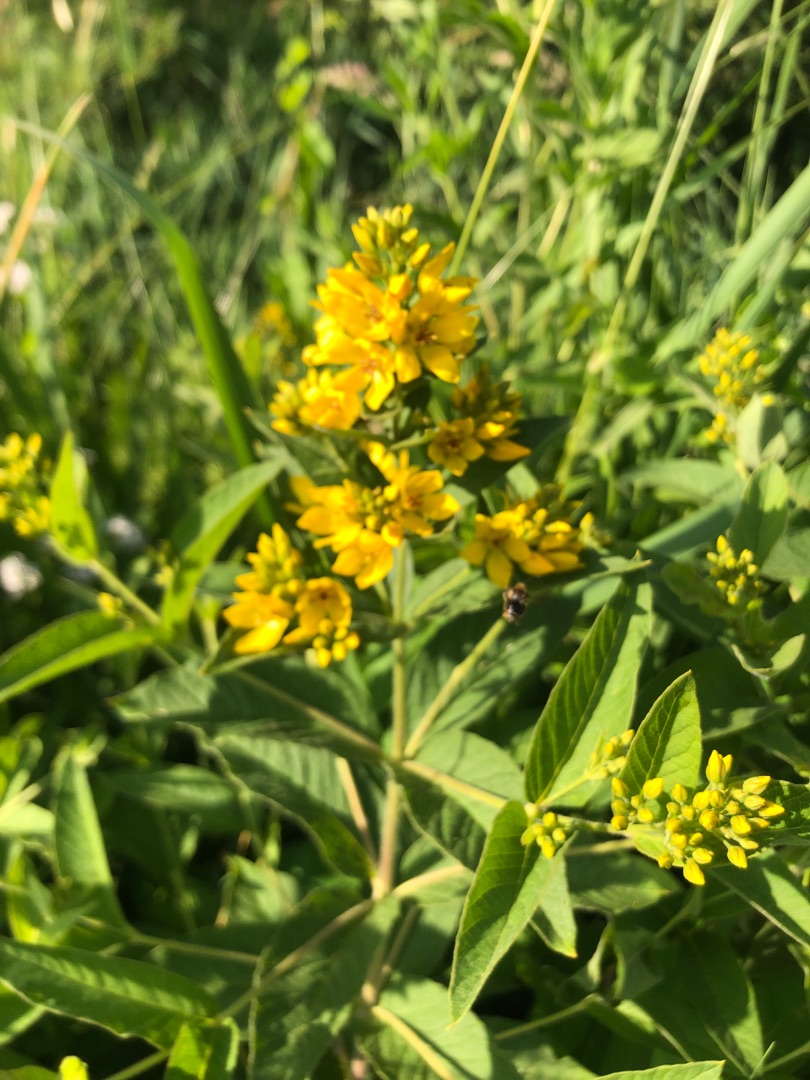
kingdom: Plantae
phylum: Tracheophyta
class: Magnoliopsida
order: Ericales
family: Primulaceae
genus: Lysimachia
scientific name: Lysimachia vulgaris
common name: Almindelig fredløs
